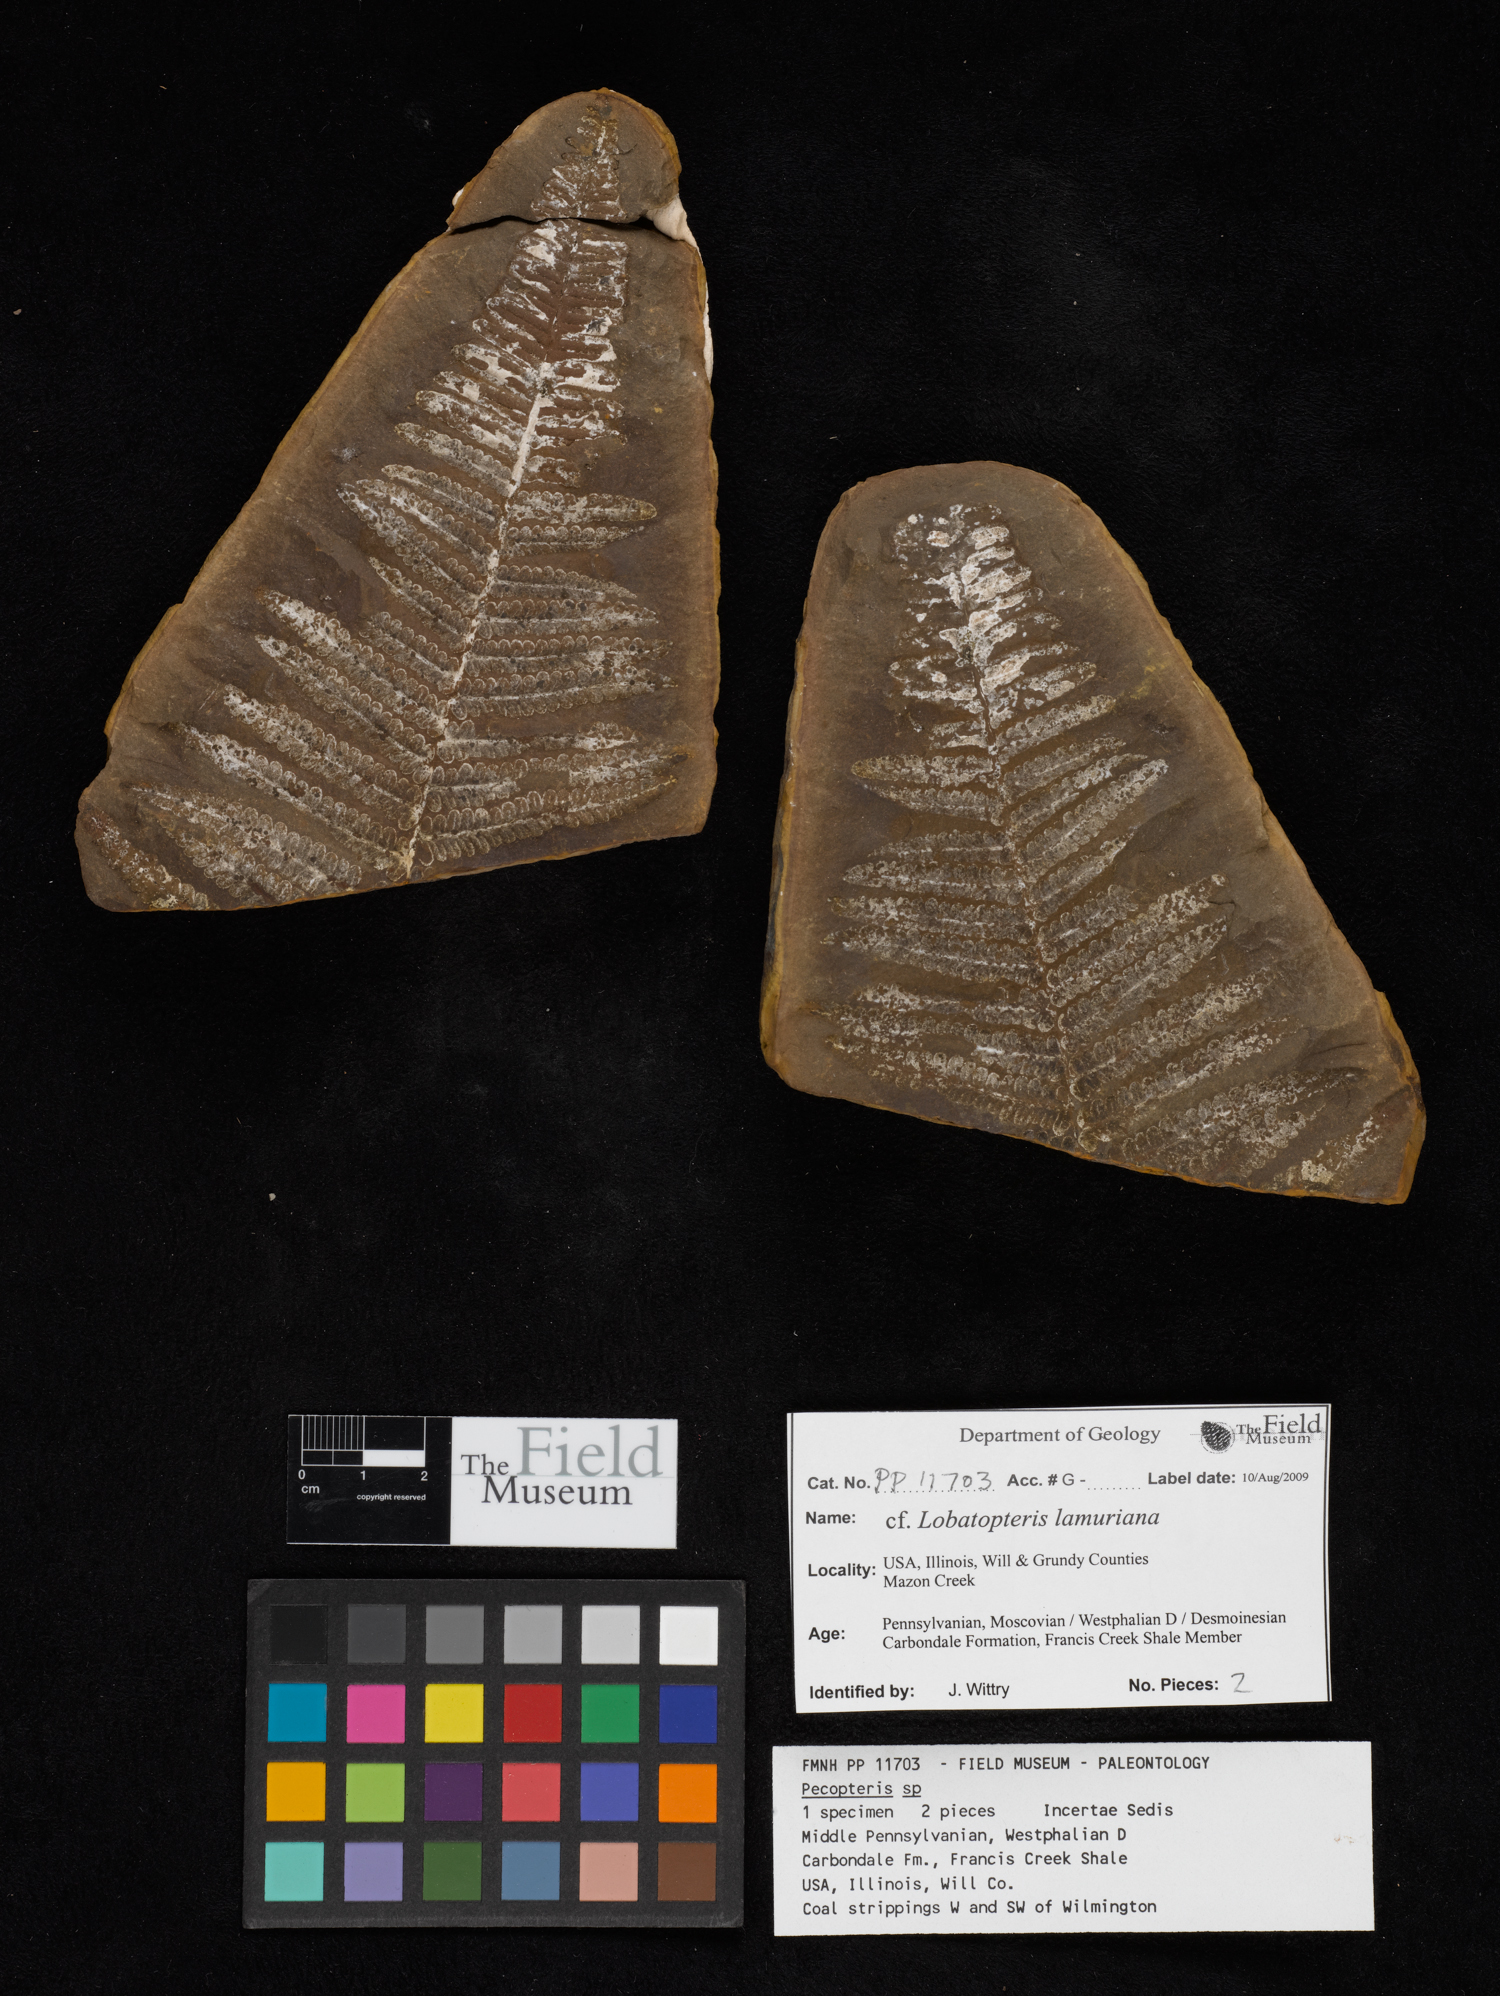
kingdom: Plantae
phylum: Tracheophyta
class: Polypodiopsida
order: Marattiales
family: Asterothecaceae
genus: Pecopteris
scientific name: Pecopteris
